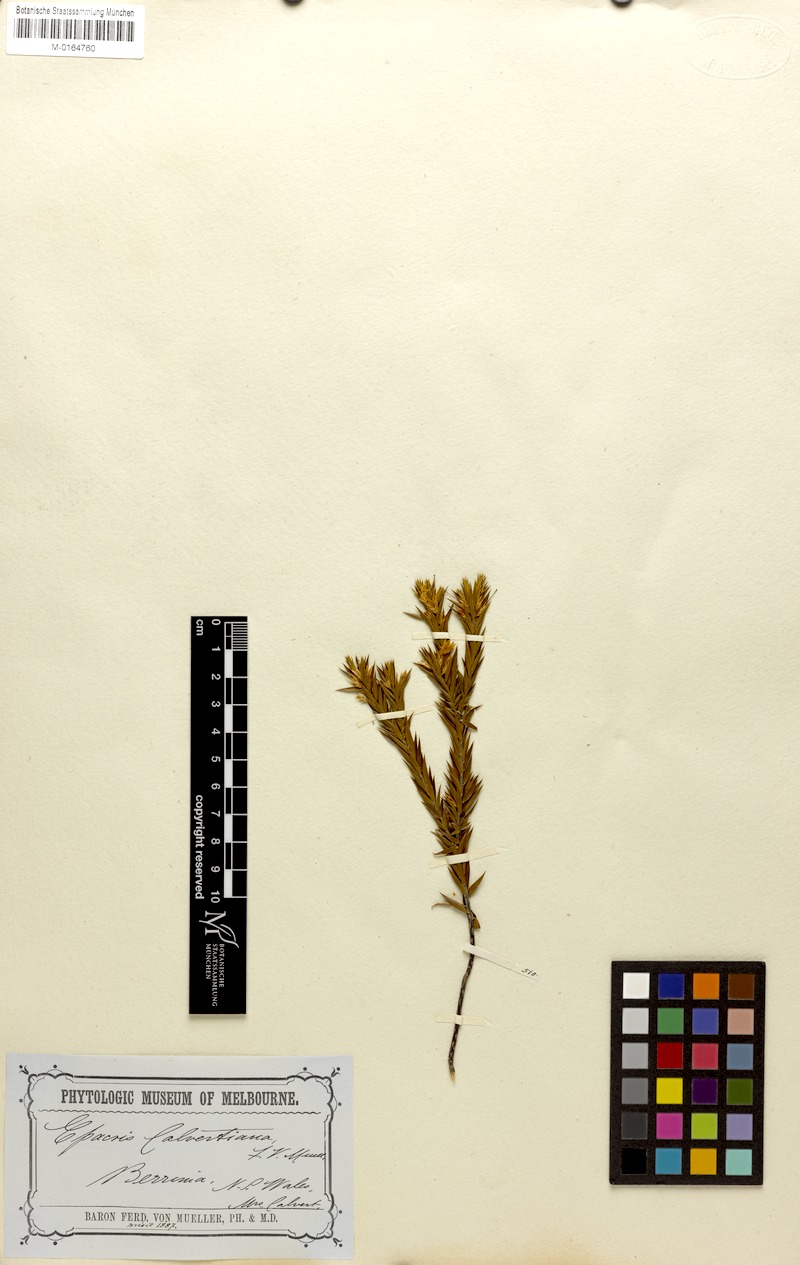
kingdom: Plantae
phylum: Tracheophyta
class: Magnoliopsida
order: Ericales
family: Ericaceae
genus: Epacris
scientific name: Epacris calvertiana
